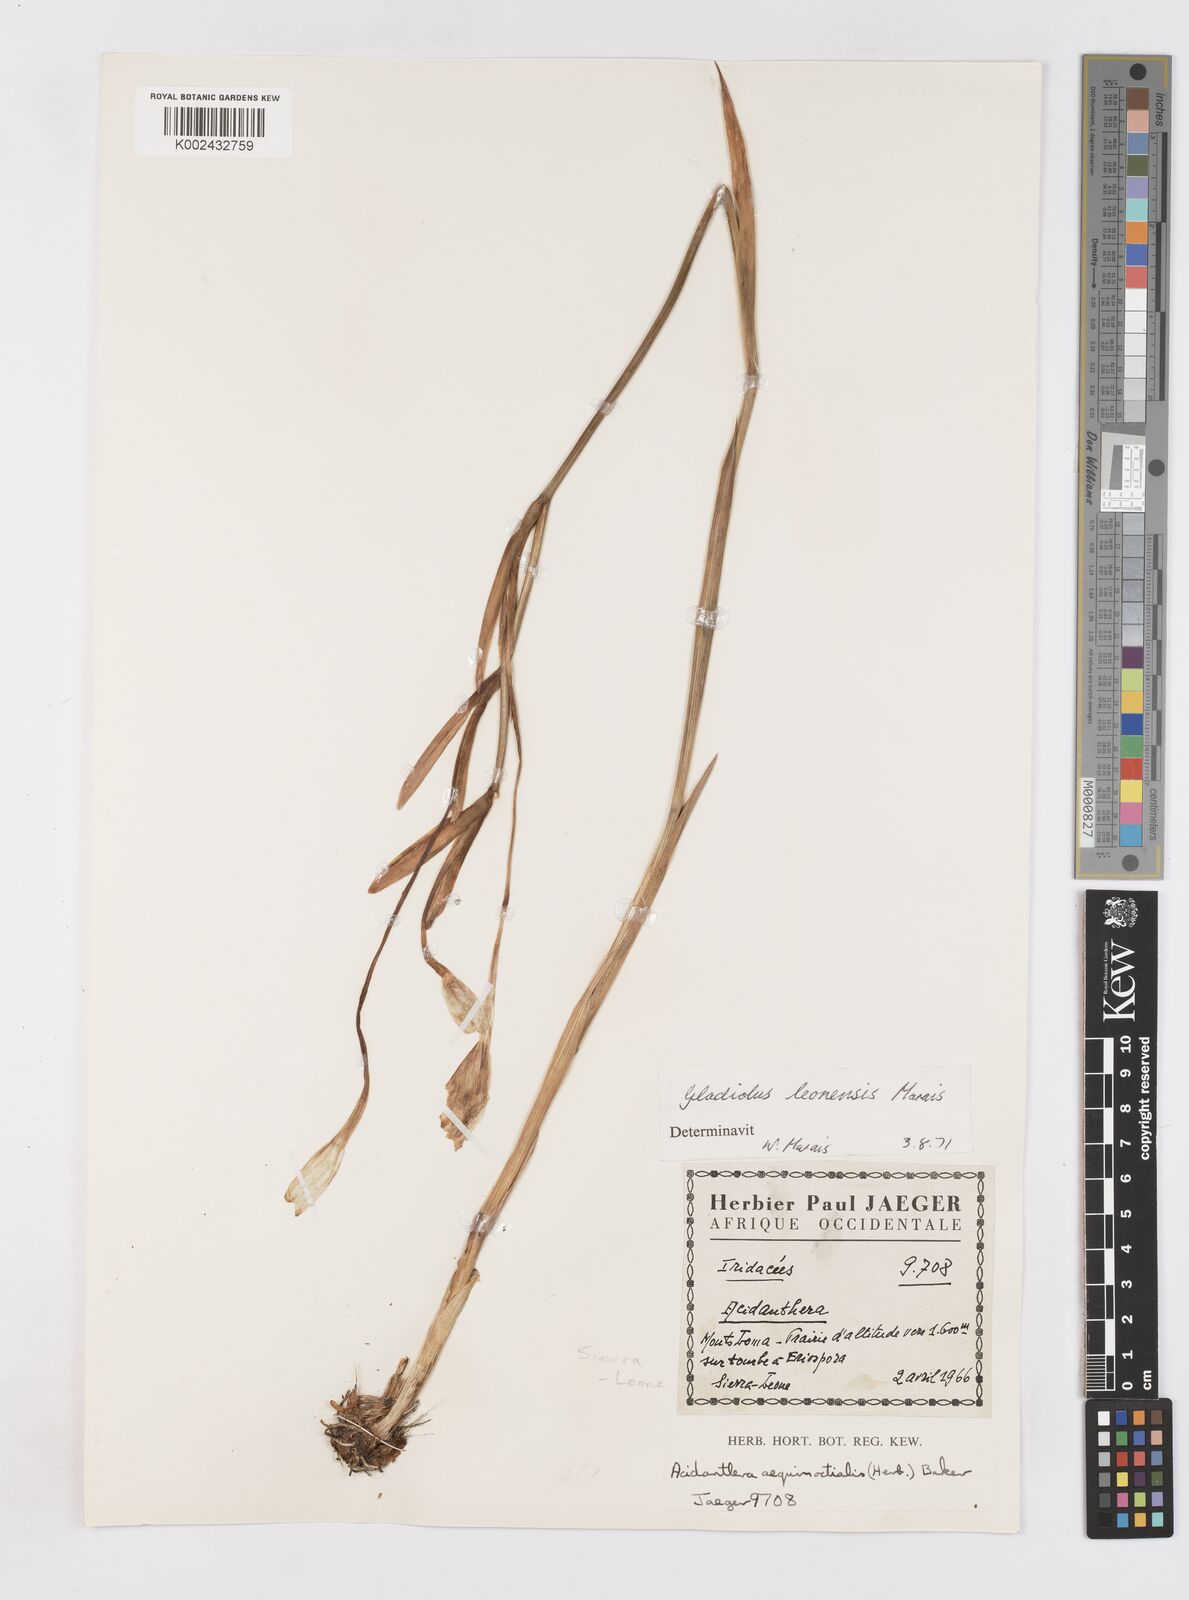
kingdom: Plantae
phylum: Tracheophyta
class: Liliopsida
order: Asparagales
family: Iridaceae
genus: Gladiolus
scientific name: Gladiolus leonensis
